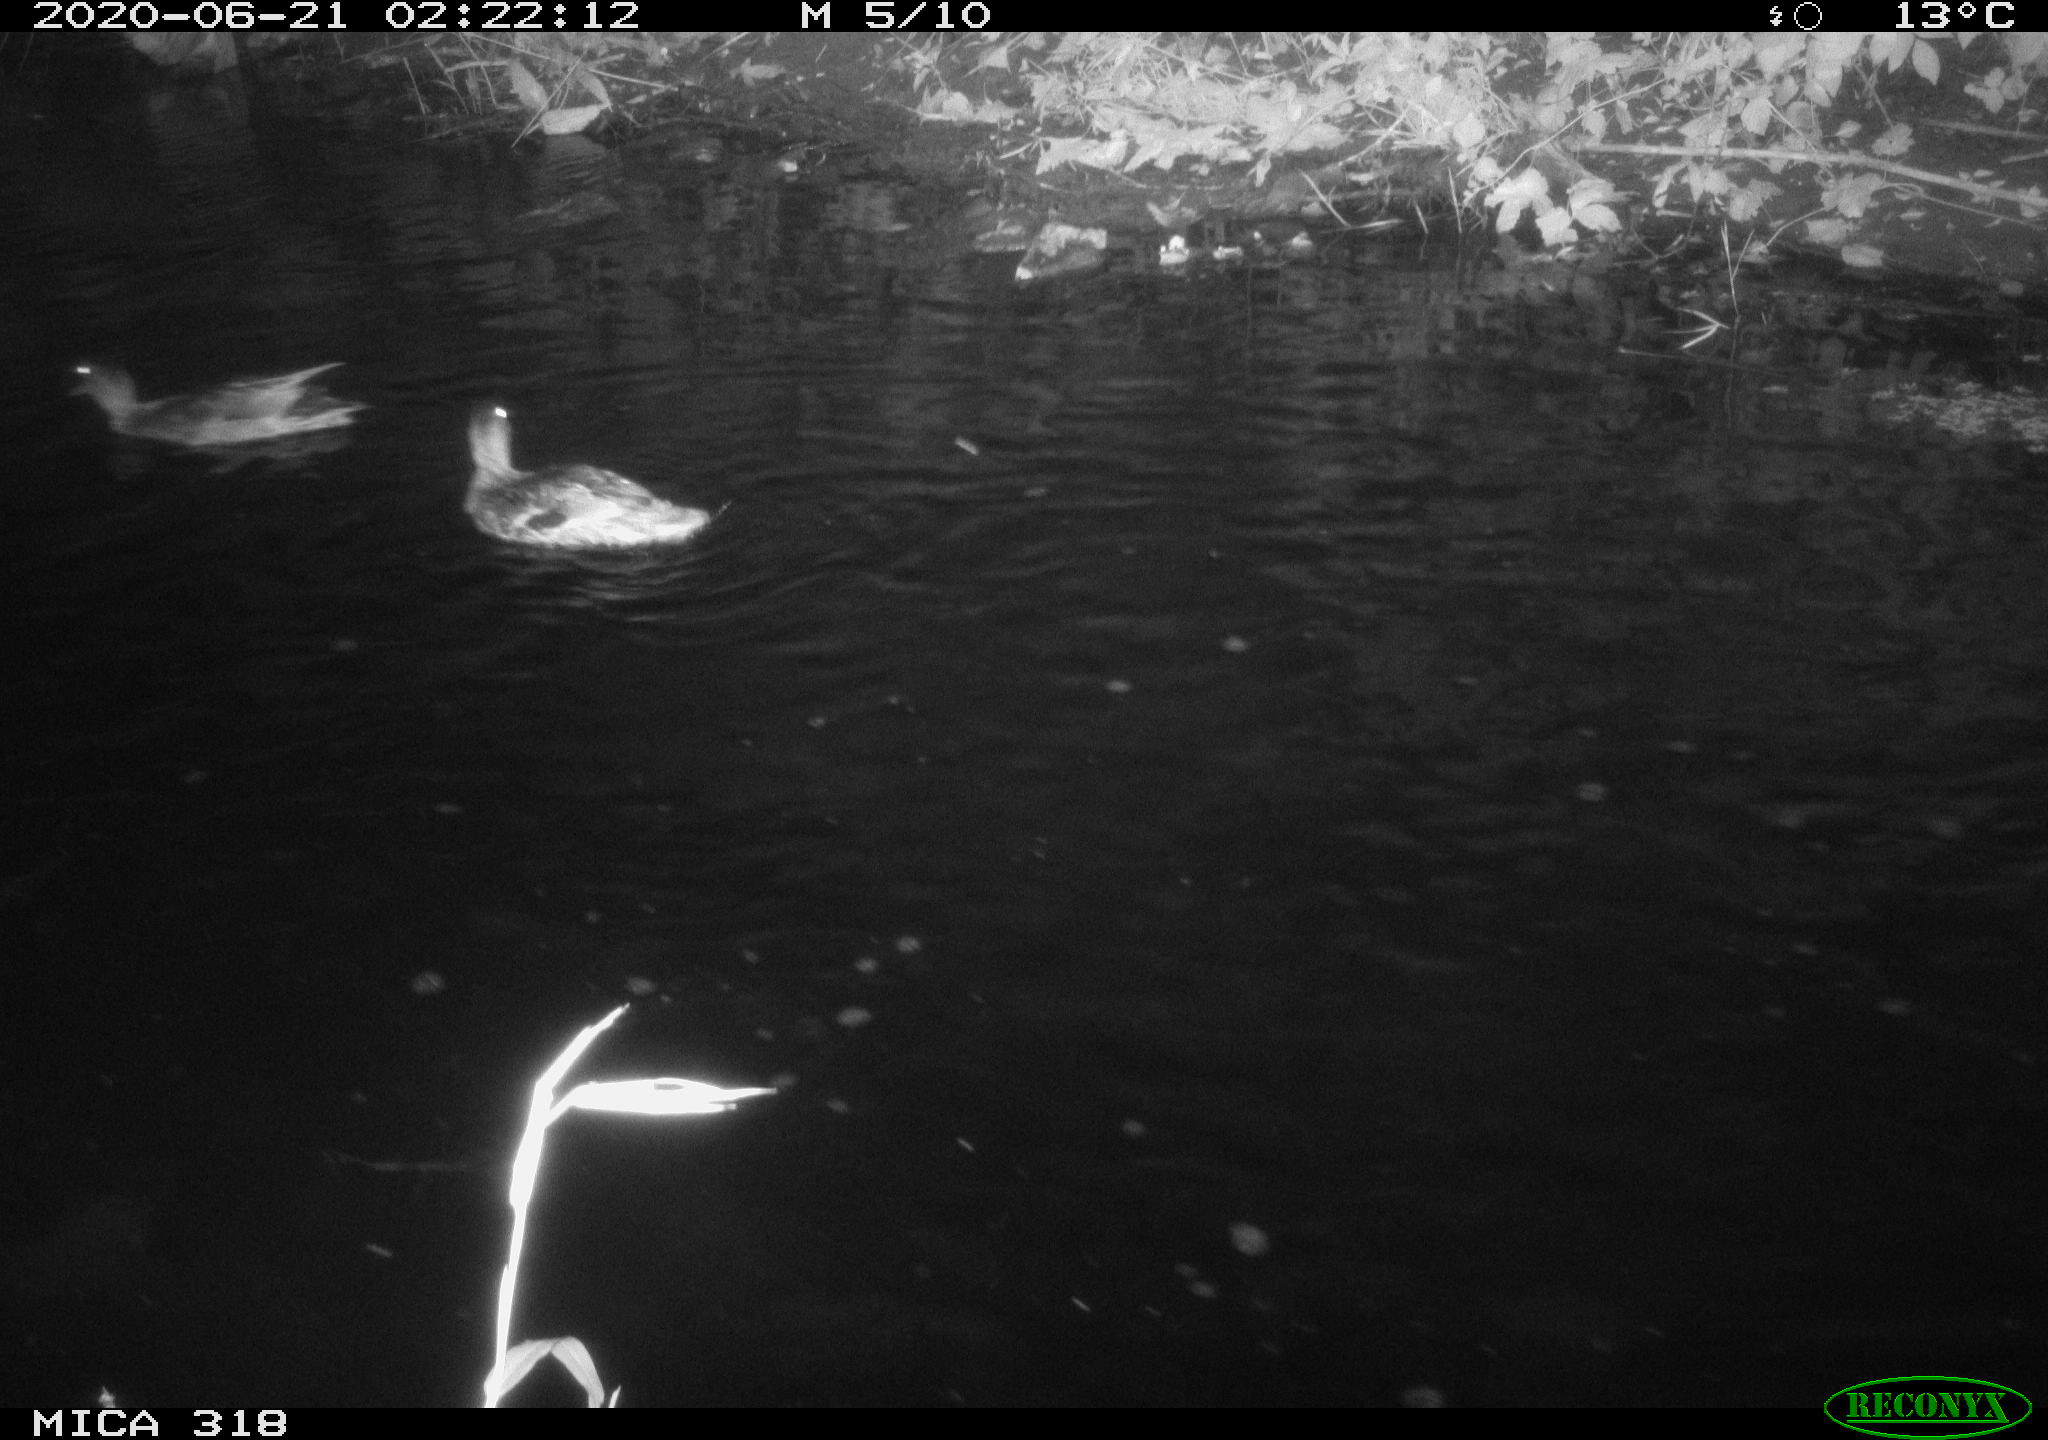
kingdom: Animalia
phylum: Chordata
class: Aves
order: Anseriformes
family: Anatidae
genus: Anas
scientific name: Anas platyrhynchos
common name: Mallard
